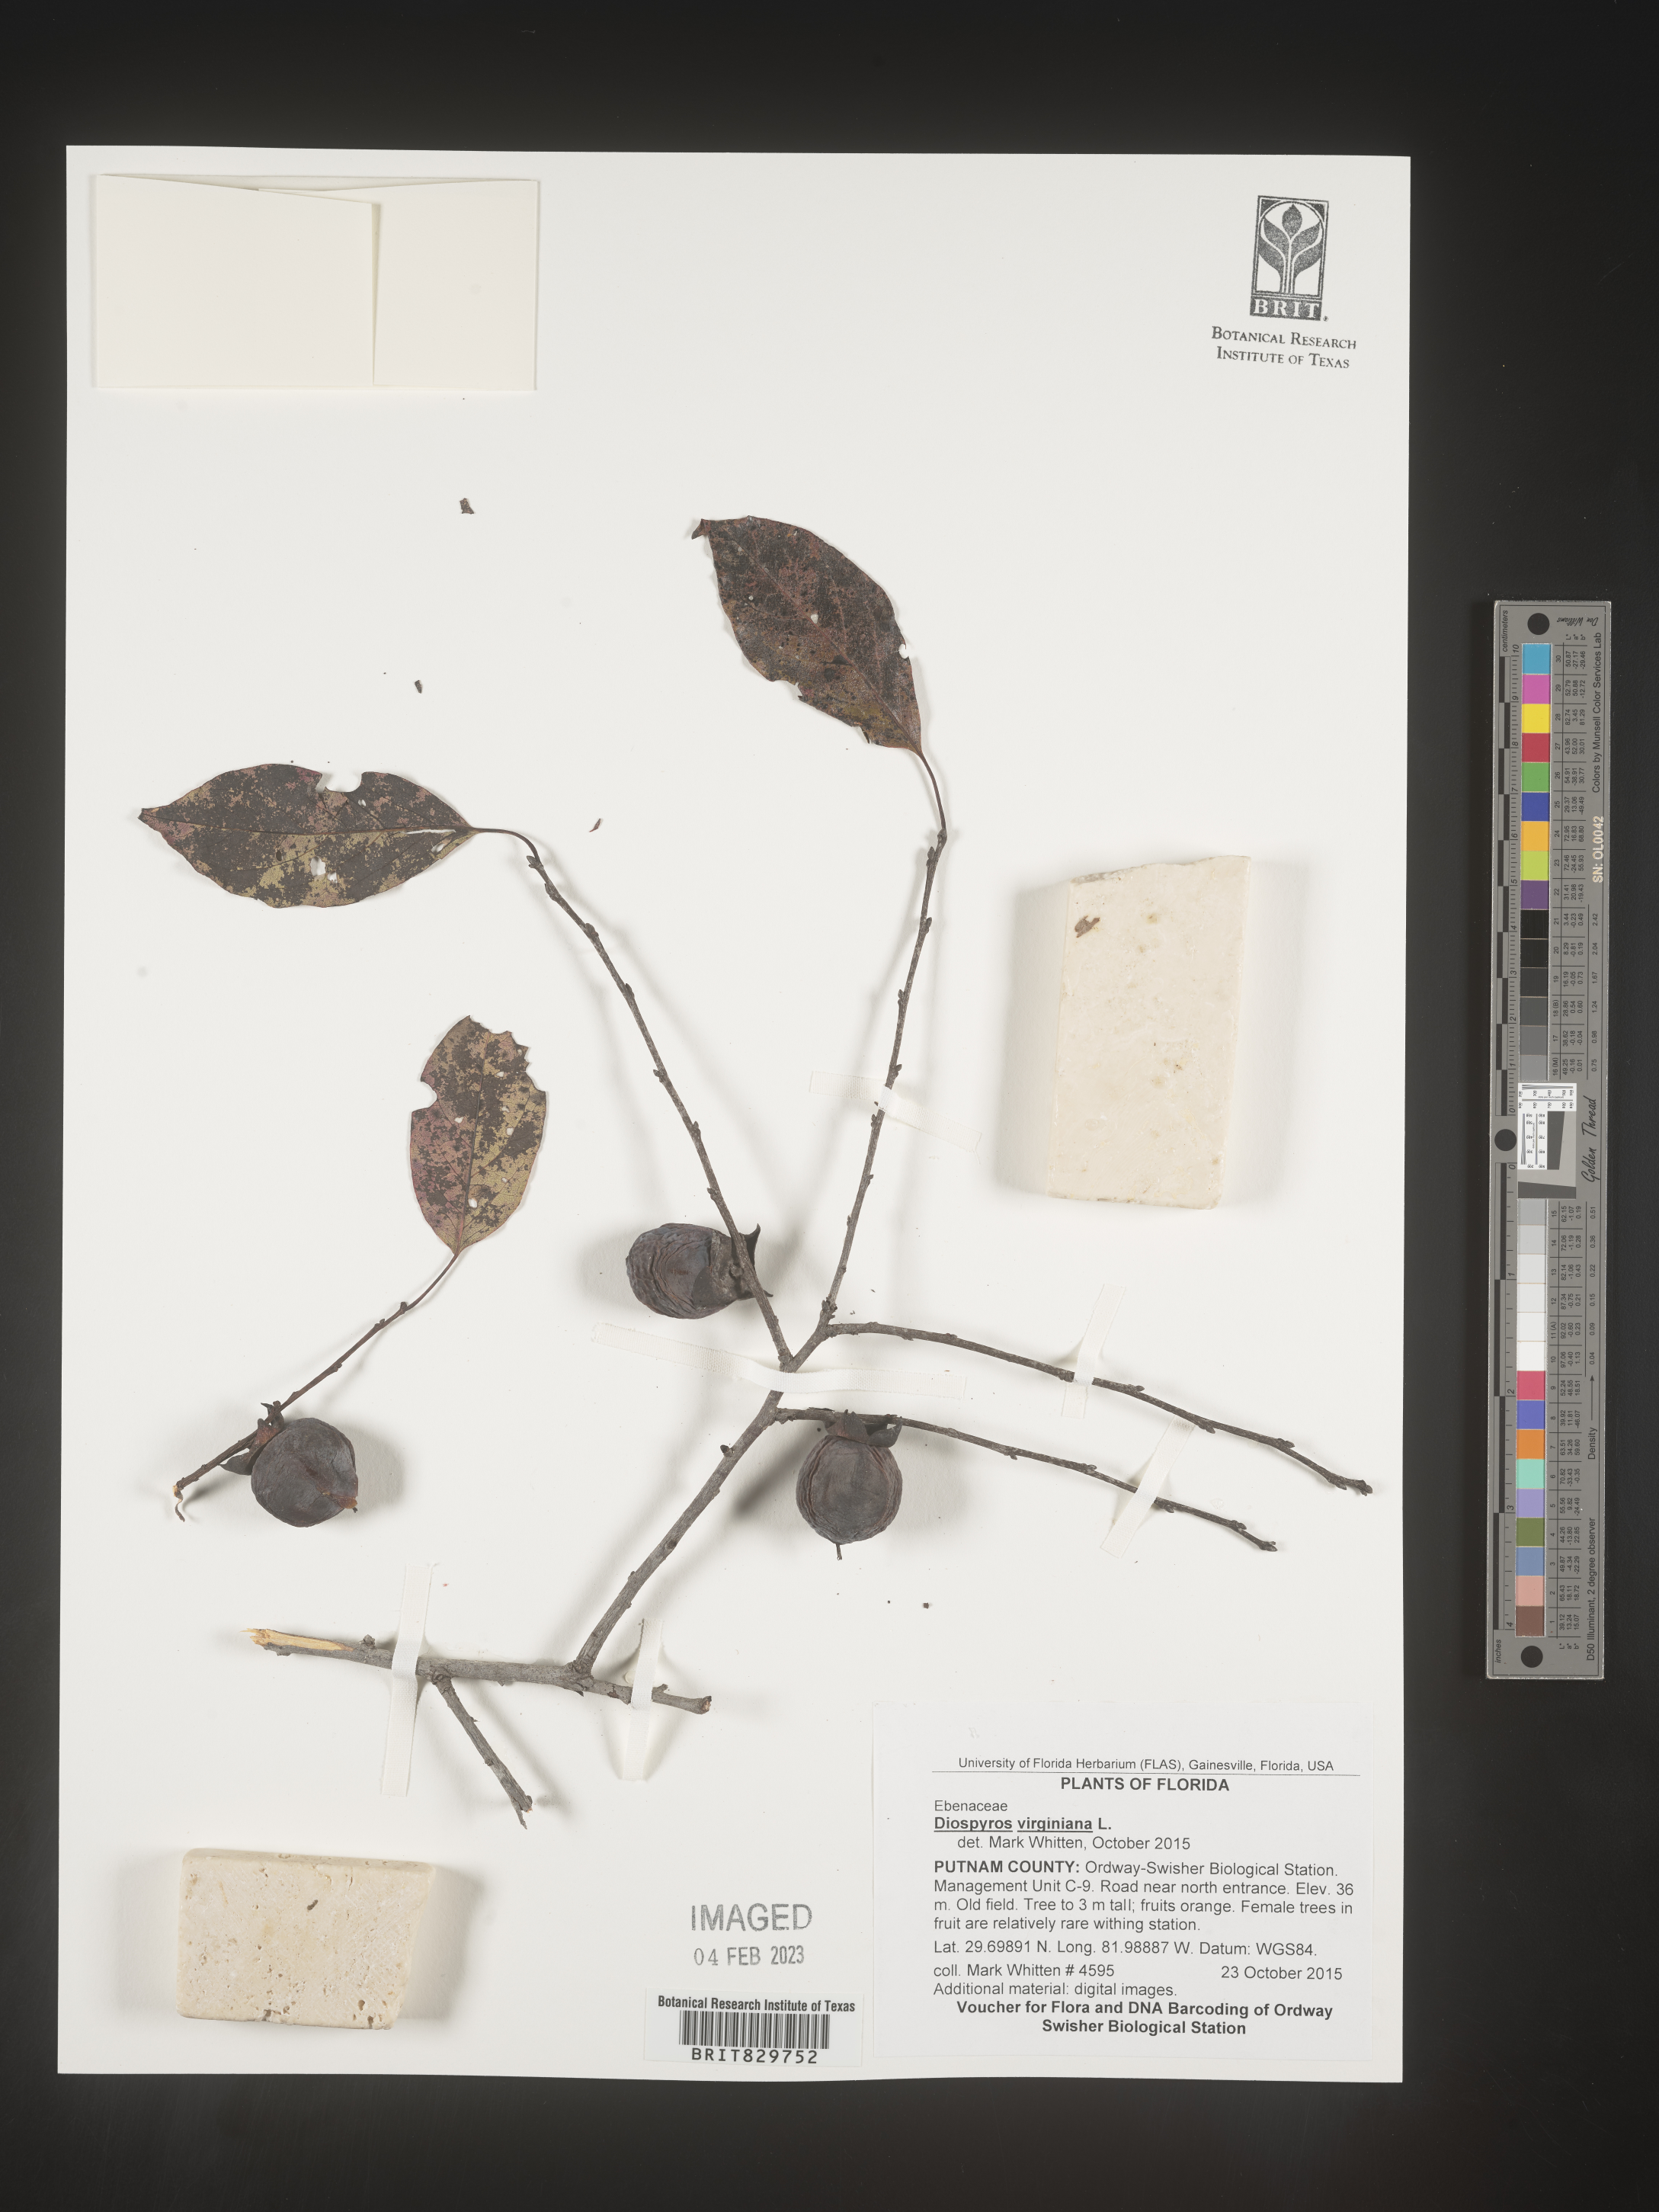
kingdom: Plantae
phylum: Tracheophyta
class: Magnoliopsida
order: Ericales
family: Ebenaceae
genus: Diospyros
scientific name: Diospyros virginiana
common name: Persimmon
